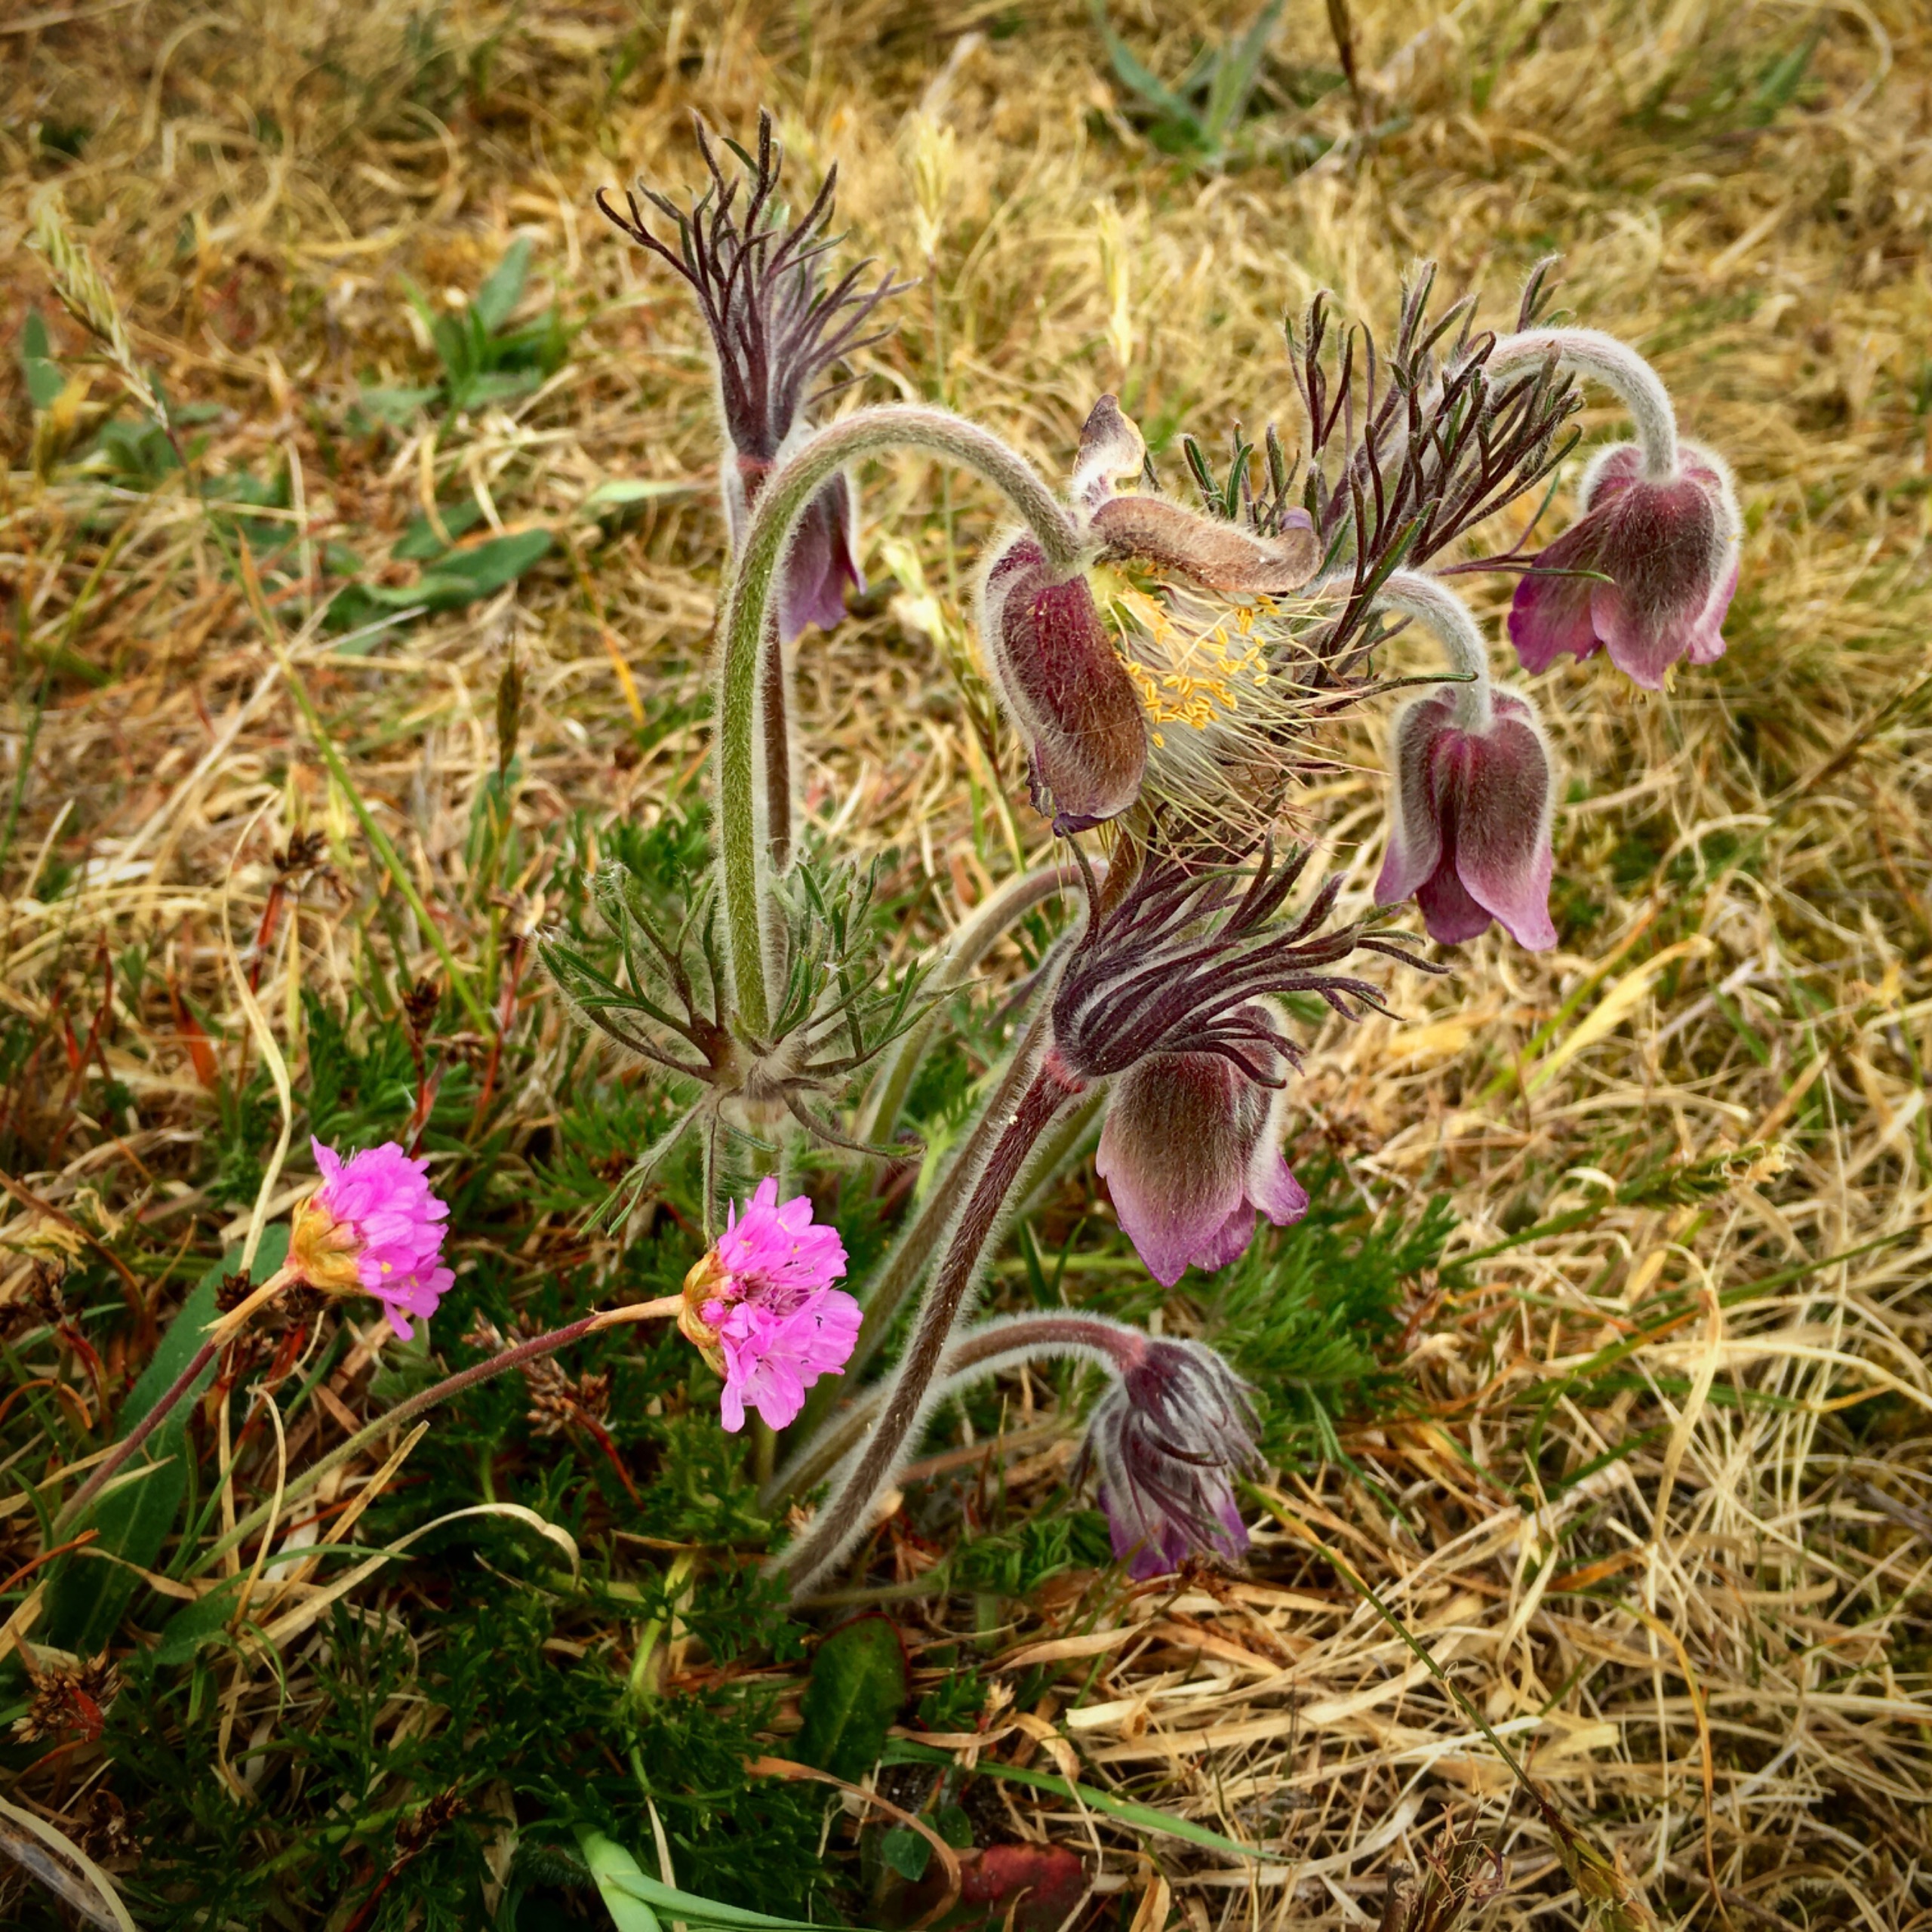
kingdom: Plantae
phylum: Tracheophyta
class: Magnoliopsida
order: Ranunculales
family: Ranunculaceae
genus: Pulsatilla
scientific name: Pulsatilla pratensis
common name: Nikkende kobjælde
